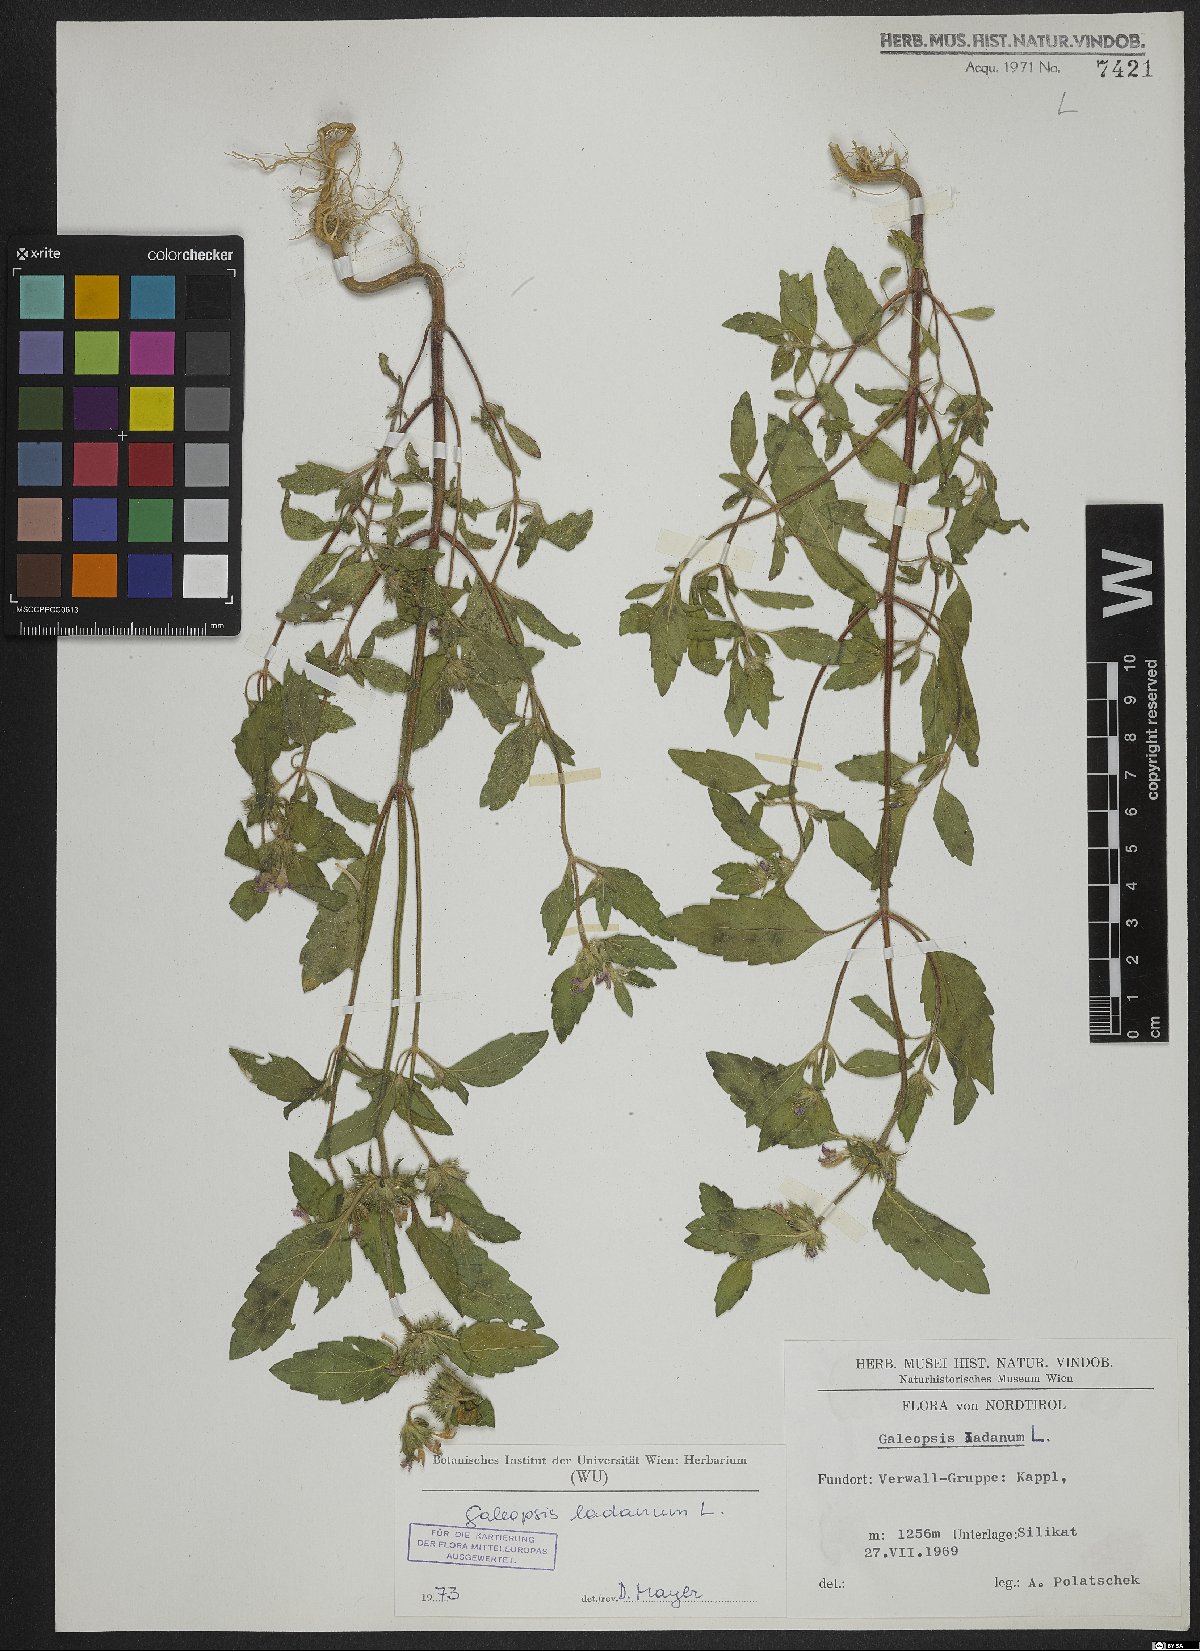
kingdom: Plantae
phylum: Tracheophyta
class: Magnoliopsida
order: Lamiales
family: Lamiaceae
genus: Galeopsis
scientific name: Galeopsis ladanum
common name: Broad-leaved hemp-nettle
